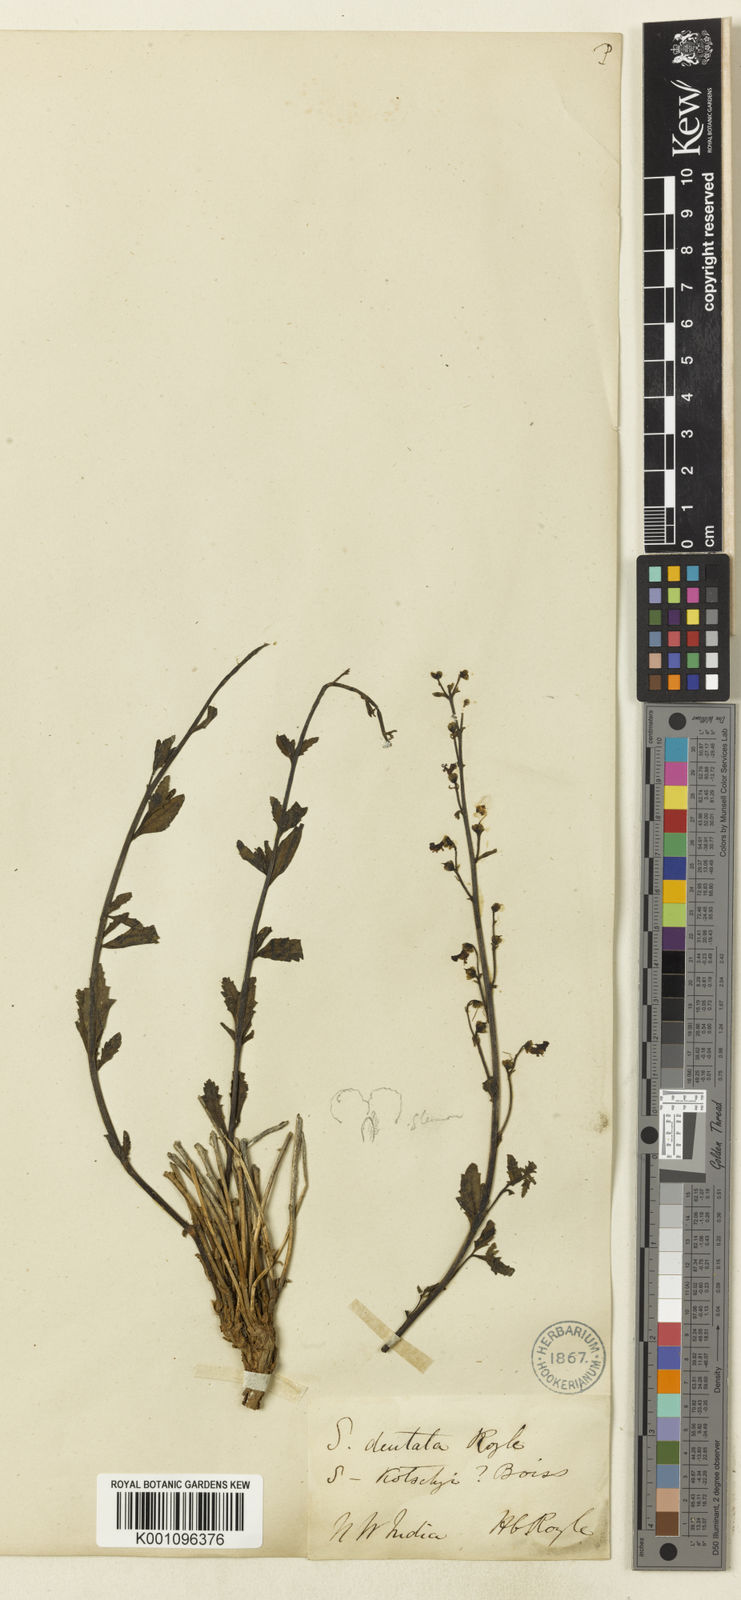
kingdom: Plantae
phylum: Tracheophyta
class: Magnoliopsida
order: Lamiales
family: Scrophulariaceae
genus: Scrophularia
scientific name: Scrophularia dentata
